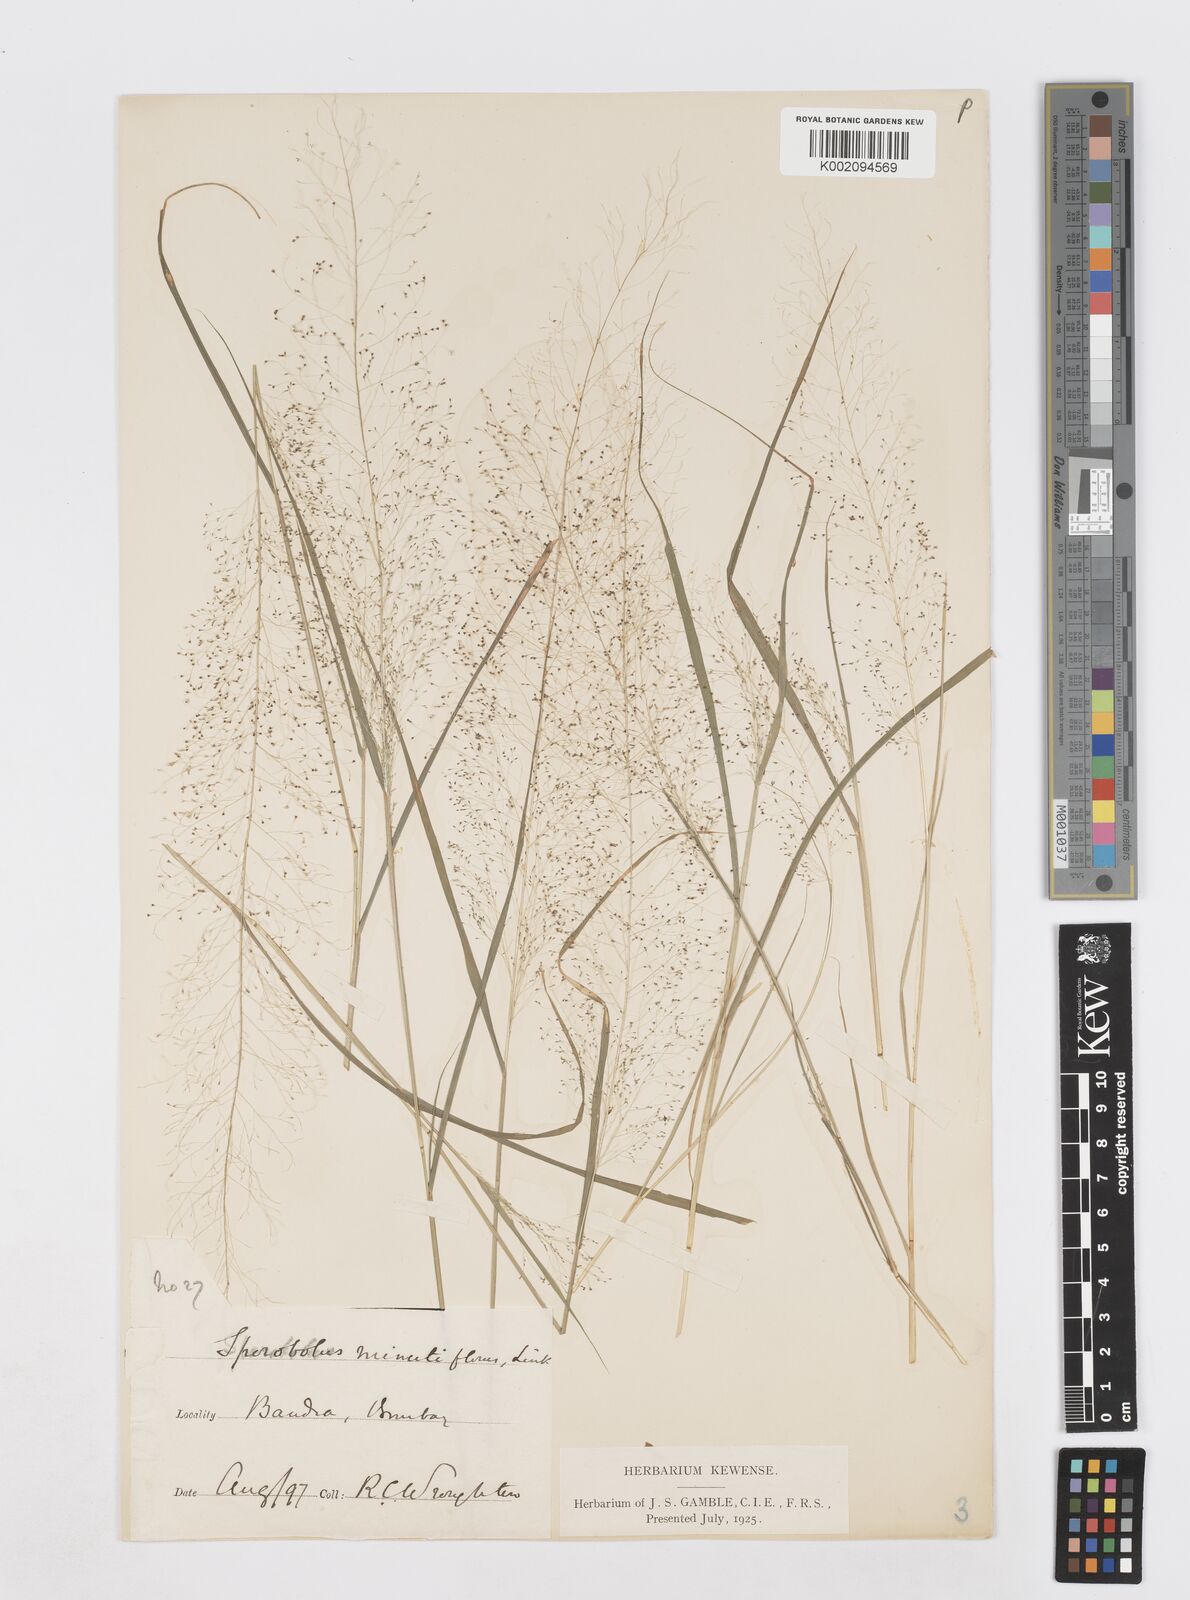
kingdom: Plantae
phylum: Tracheophyta
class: Liliopsida
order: Poales
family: Poaceae
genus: Sporobolus
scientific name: Sporobolus tenuissimus
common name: Tropical dropseed
